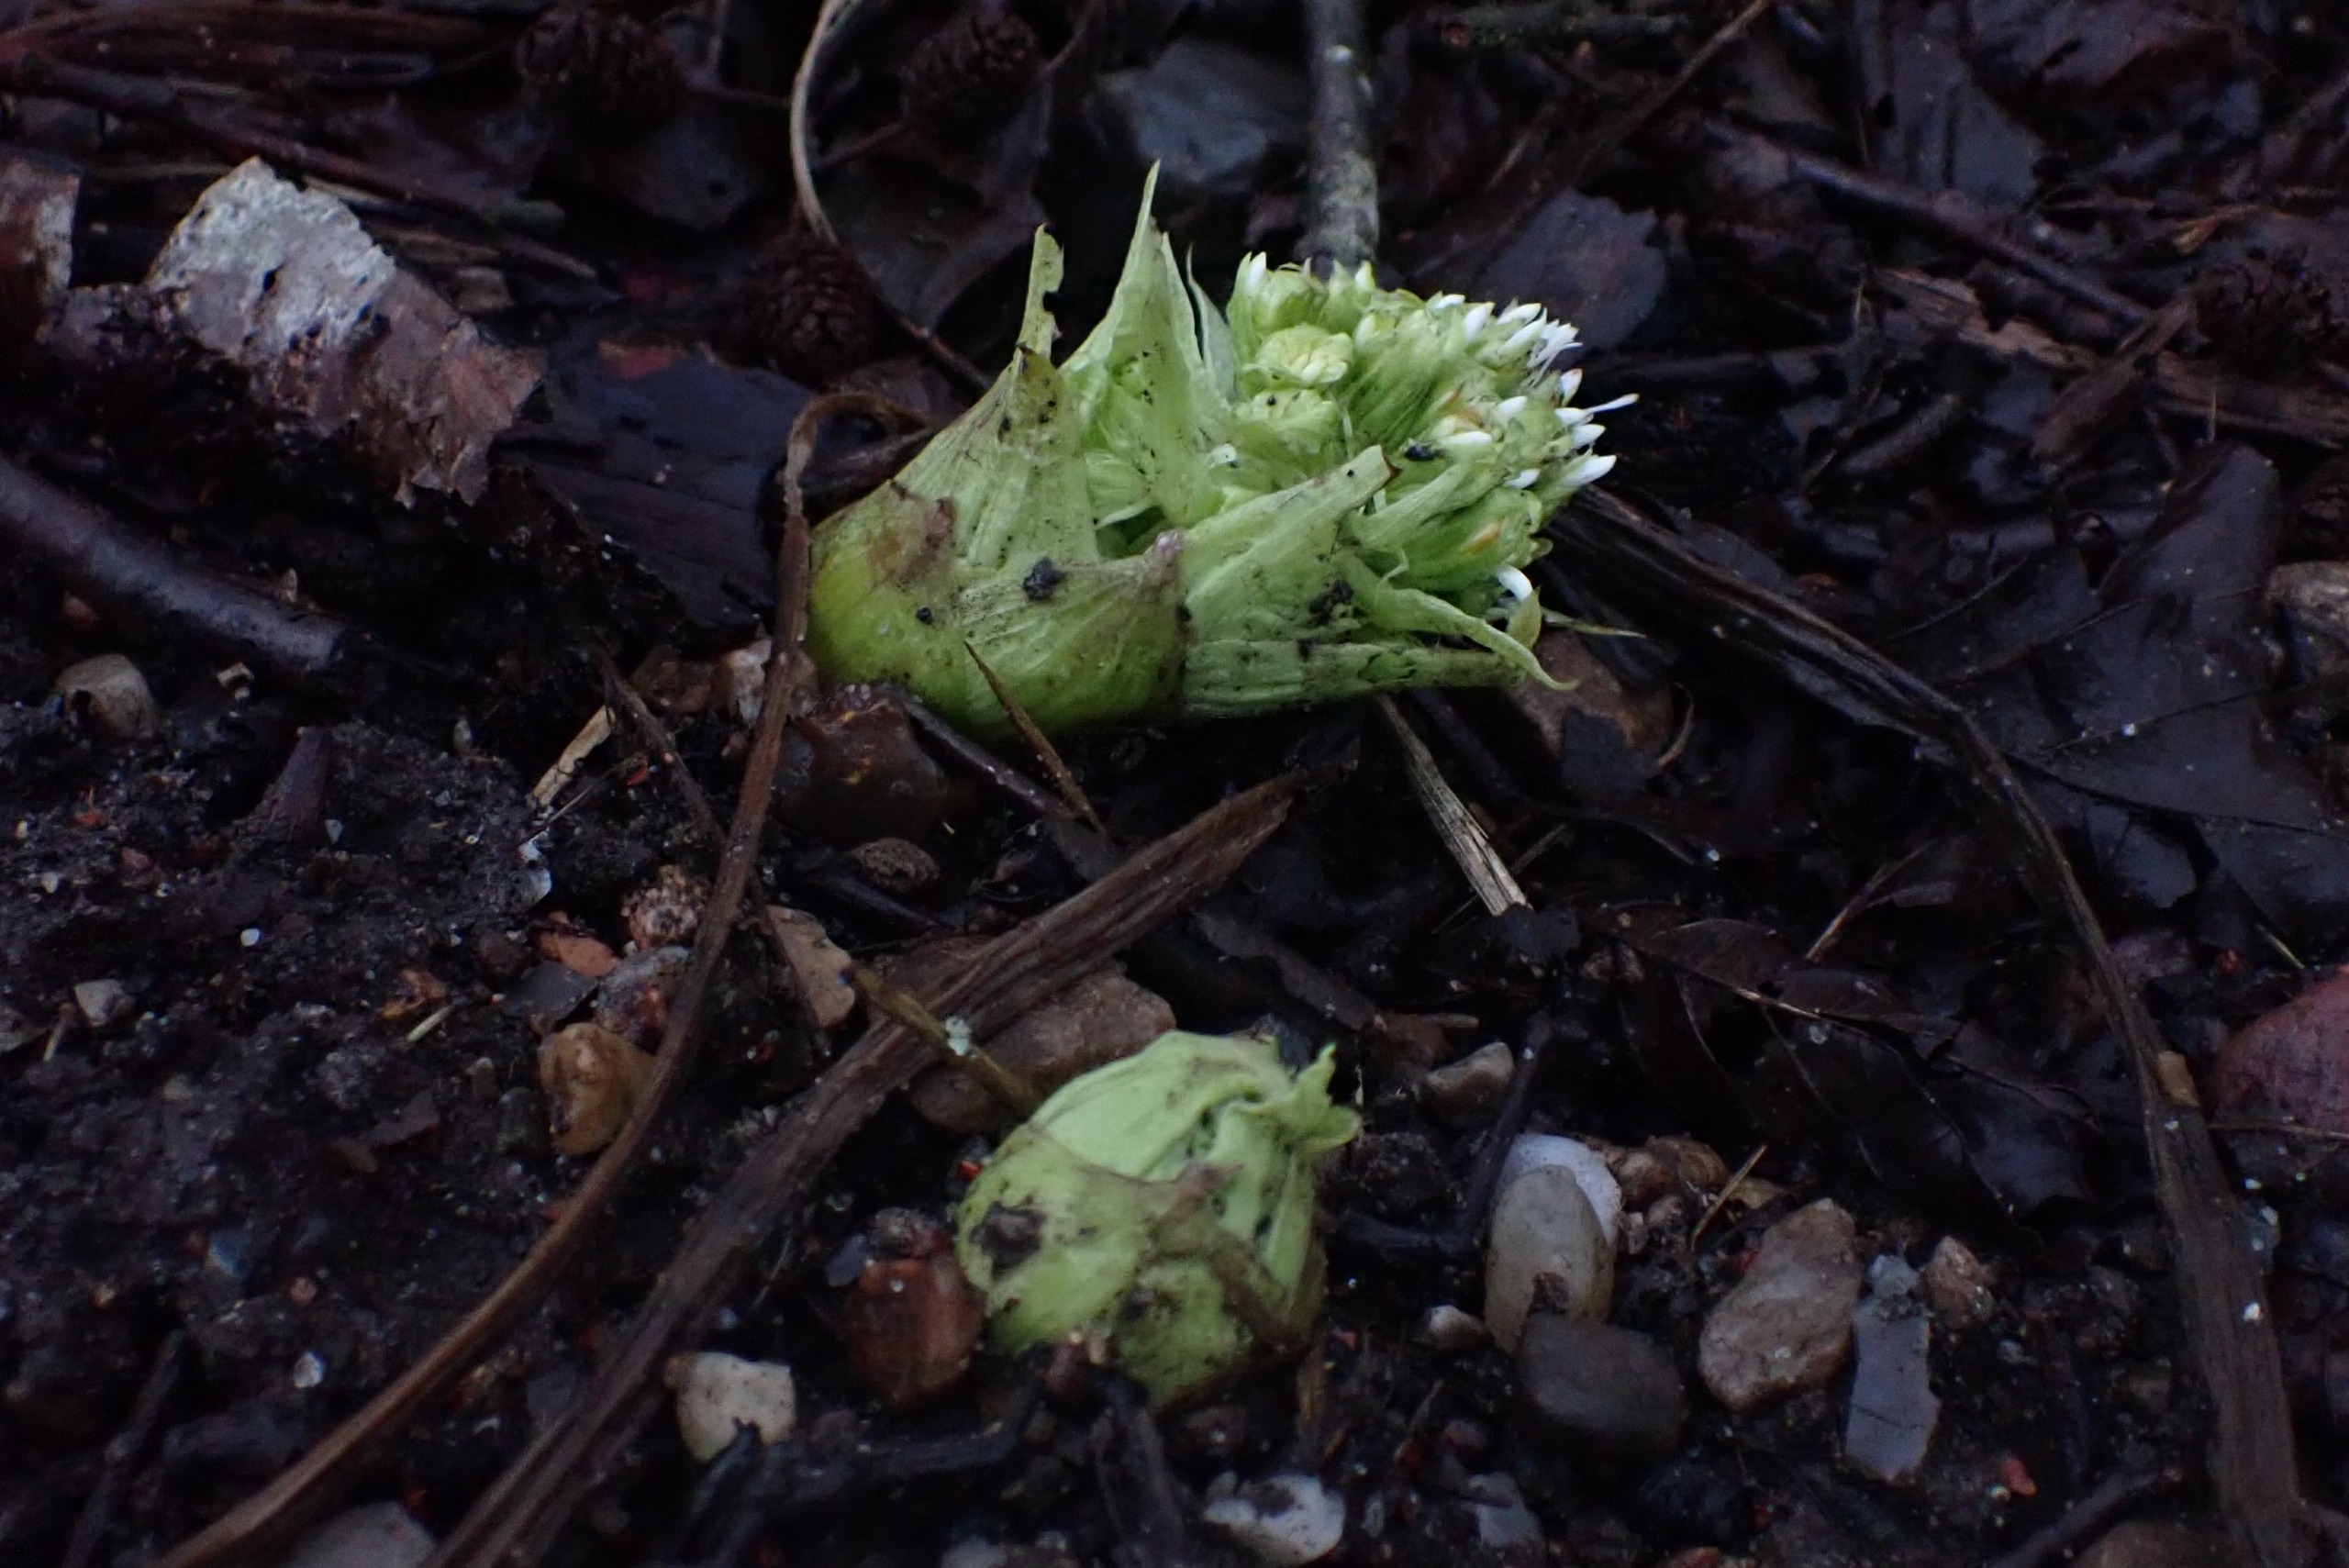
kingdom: Plantae
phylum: Tracheophyta
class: Magnoliopsida
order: Asterales
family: Asteraceae
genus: Petasites
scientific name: Petasites albus
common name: Hvid hestehov
